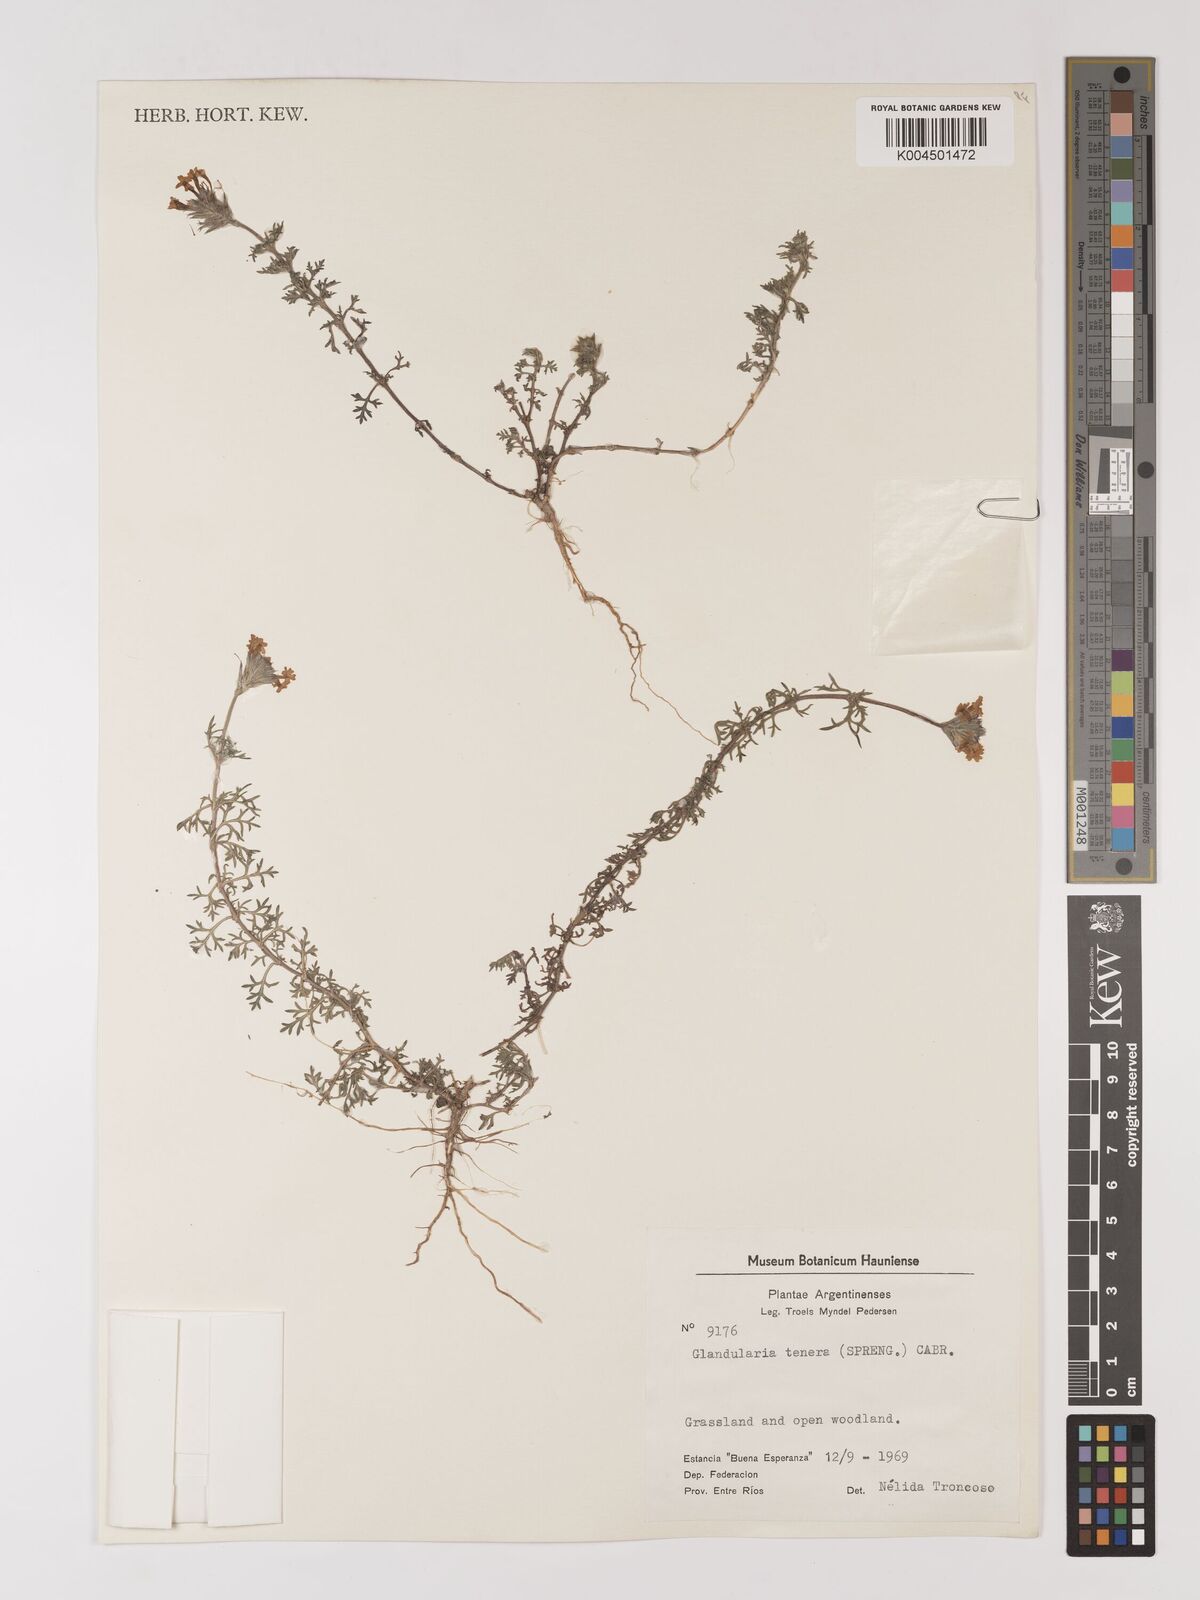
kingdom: Plantae
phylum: Tracheophyta
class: Magnoliopsida
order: Lamiales
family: Verbenaceae
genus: Verbena
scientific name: Verbena tenera
